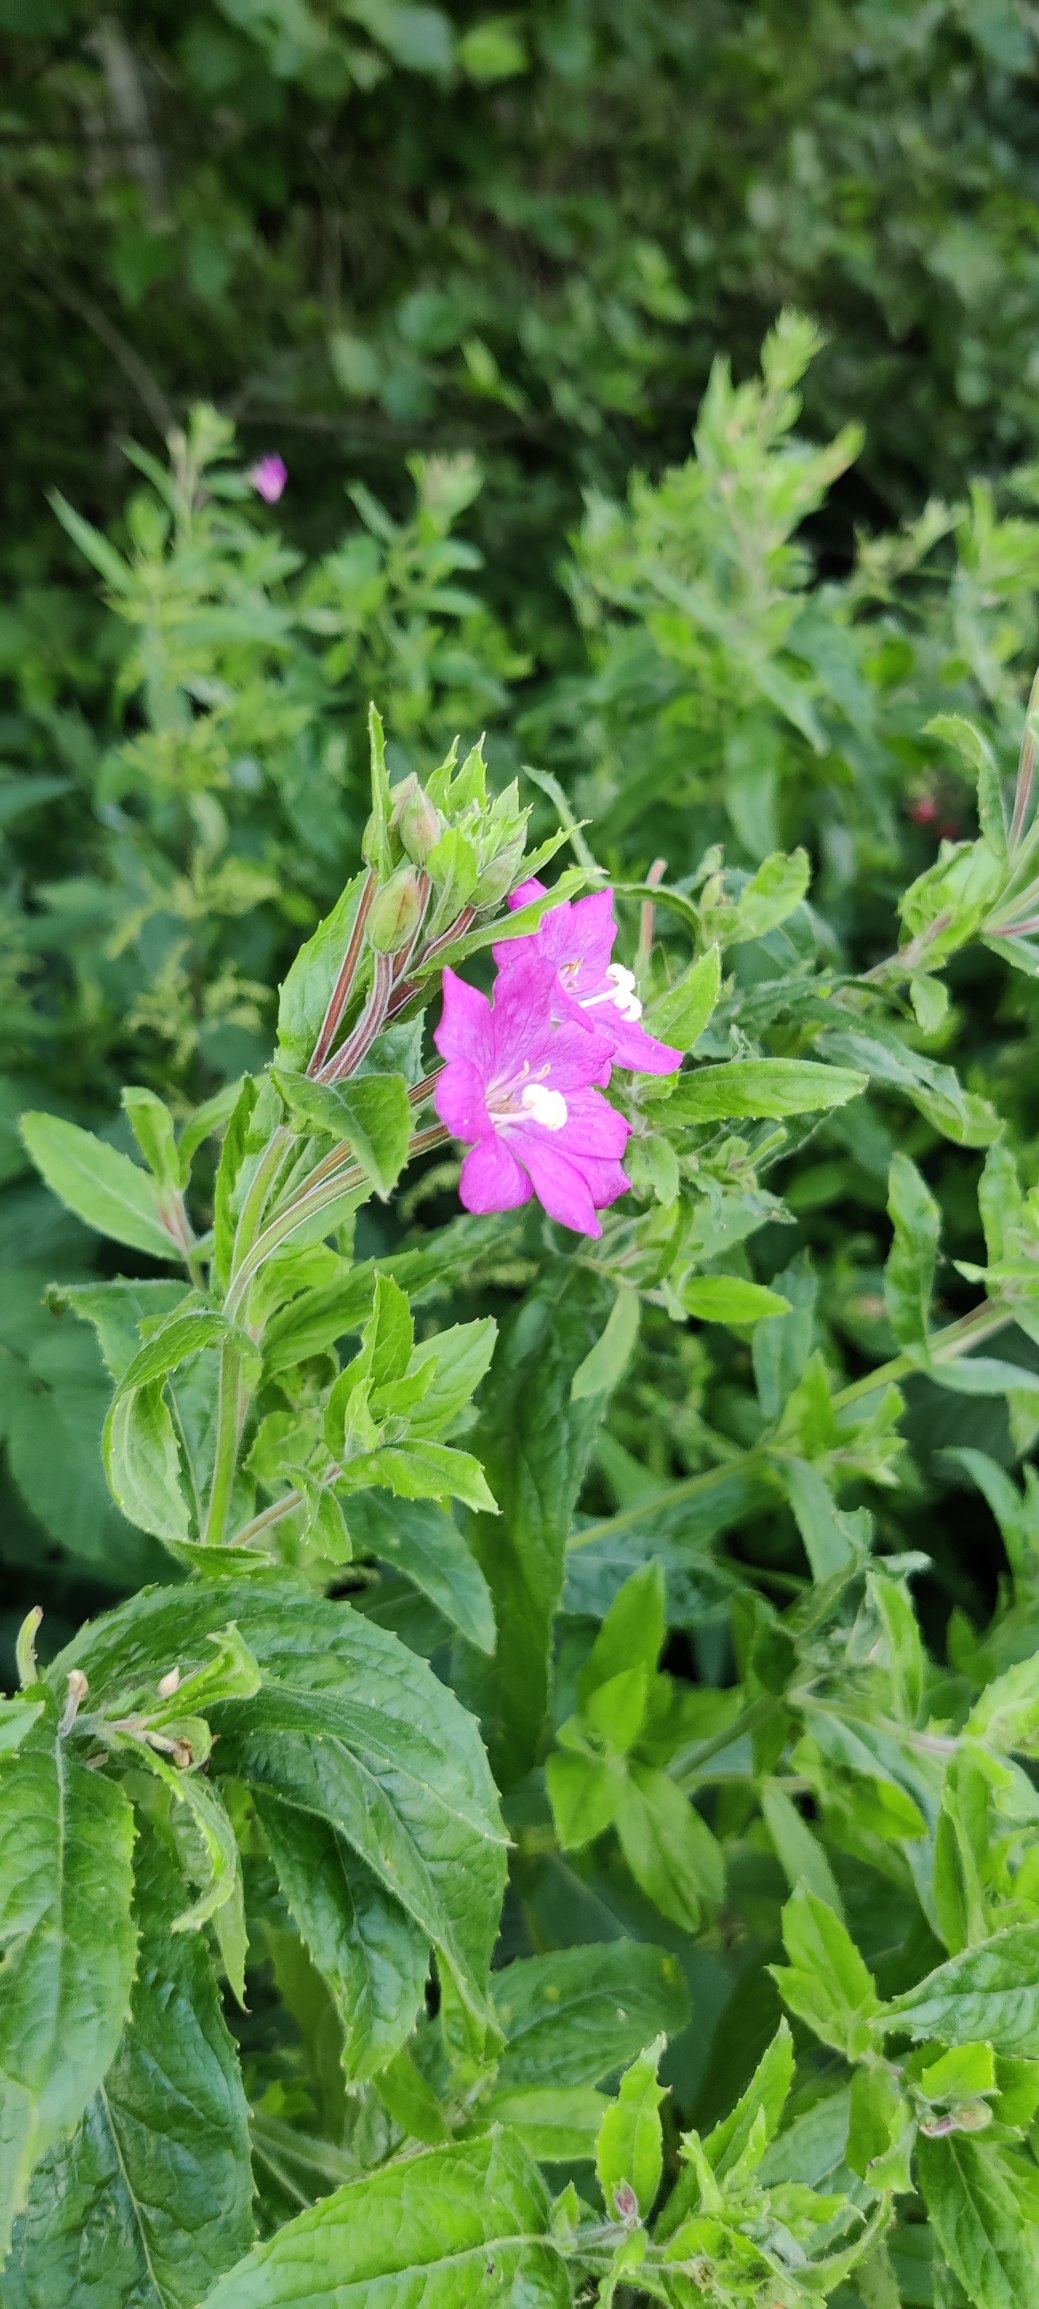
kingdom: Plantae
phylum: Tracheophyta
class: Magnoliopsida
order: Myrtales
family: Onagraceae
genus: Epilobium
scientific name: Epilobium hirsutum
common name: Lådden dueurt
